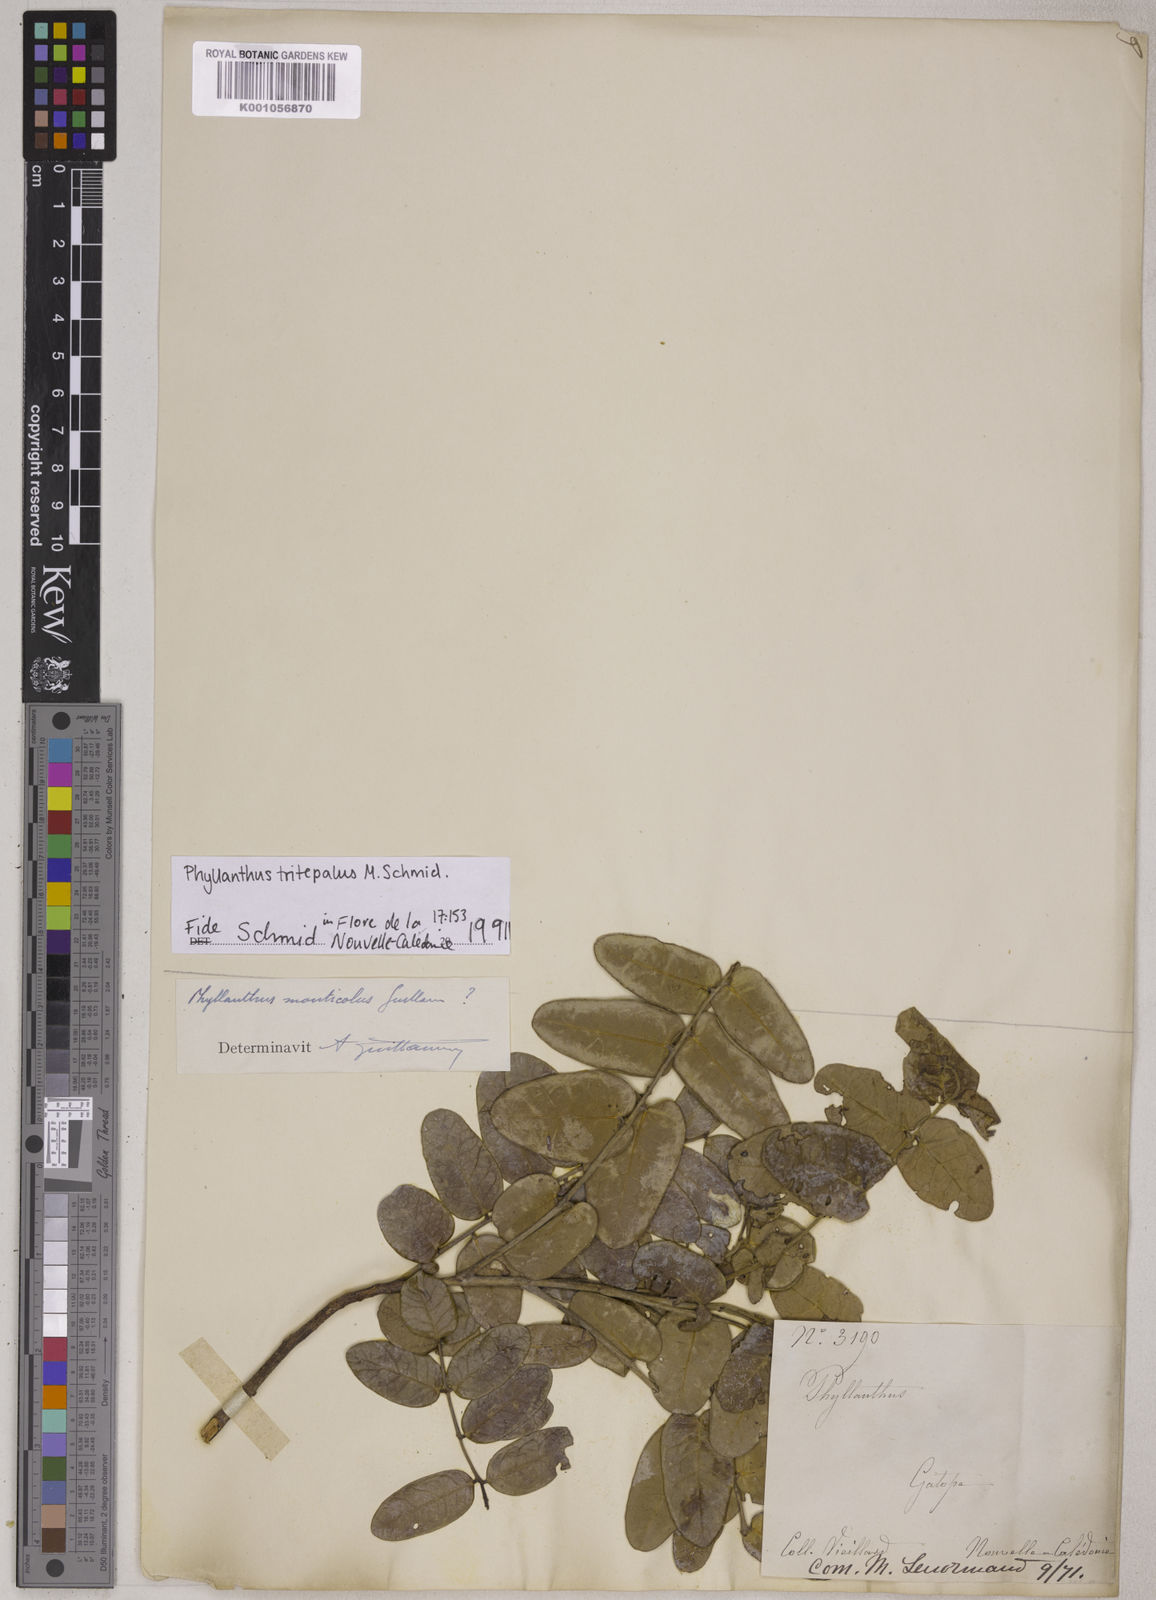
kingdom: Plantae
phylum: Tracheophyta
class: Magnoliopsida
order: Malpighiales
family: Phyllanthaceae
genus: Phyllanthus
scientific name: Phyllanthus tritepalus
